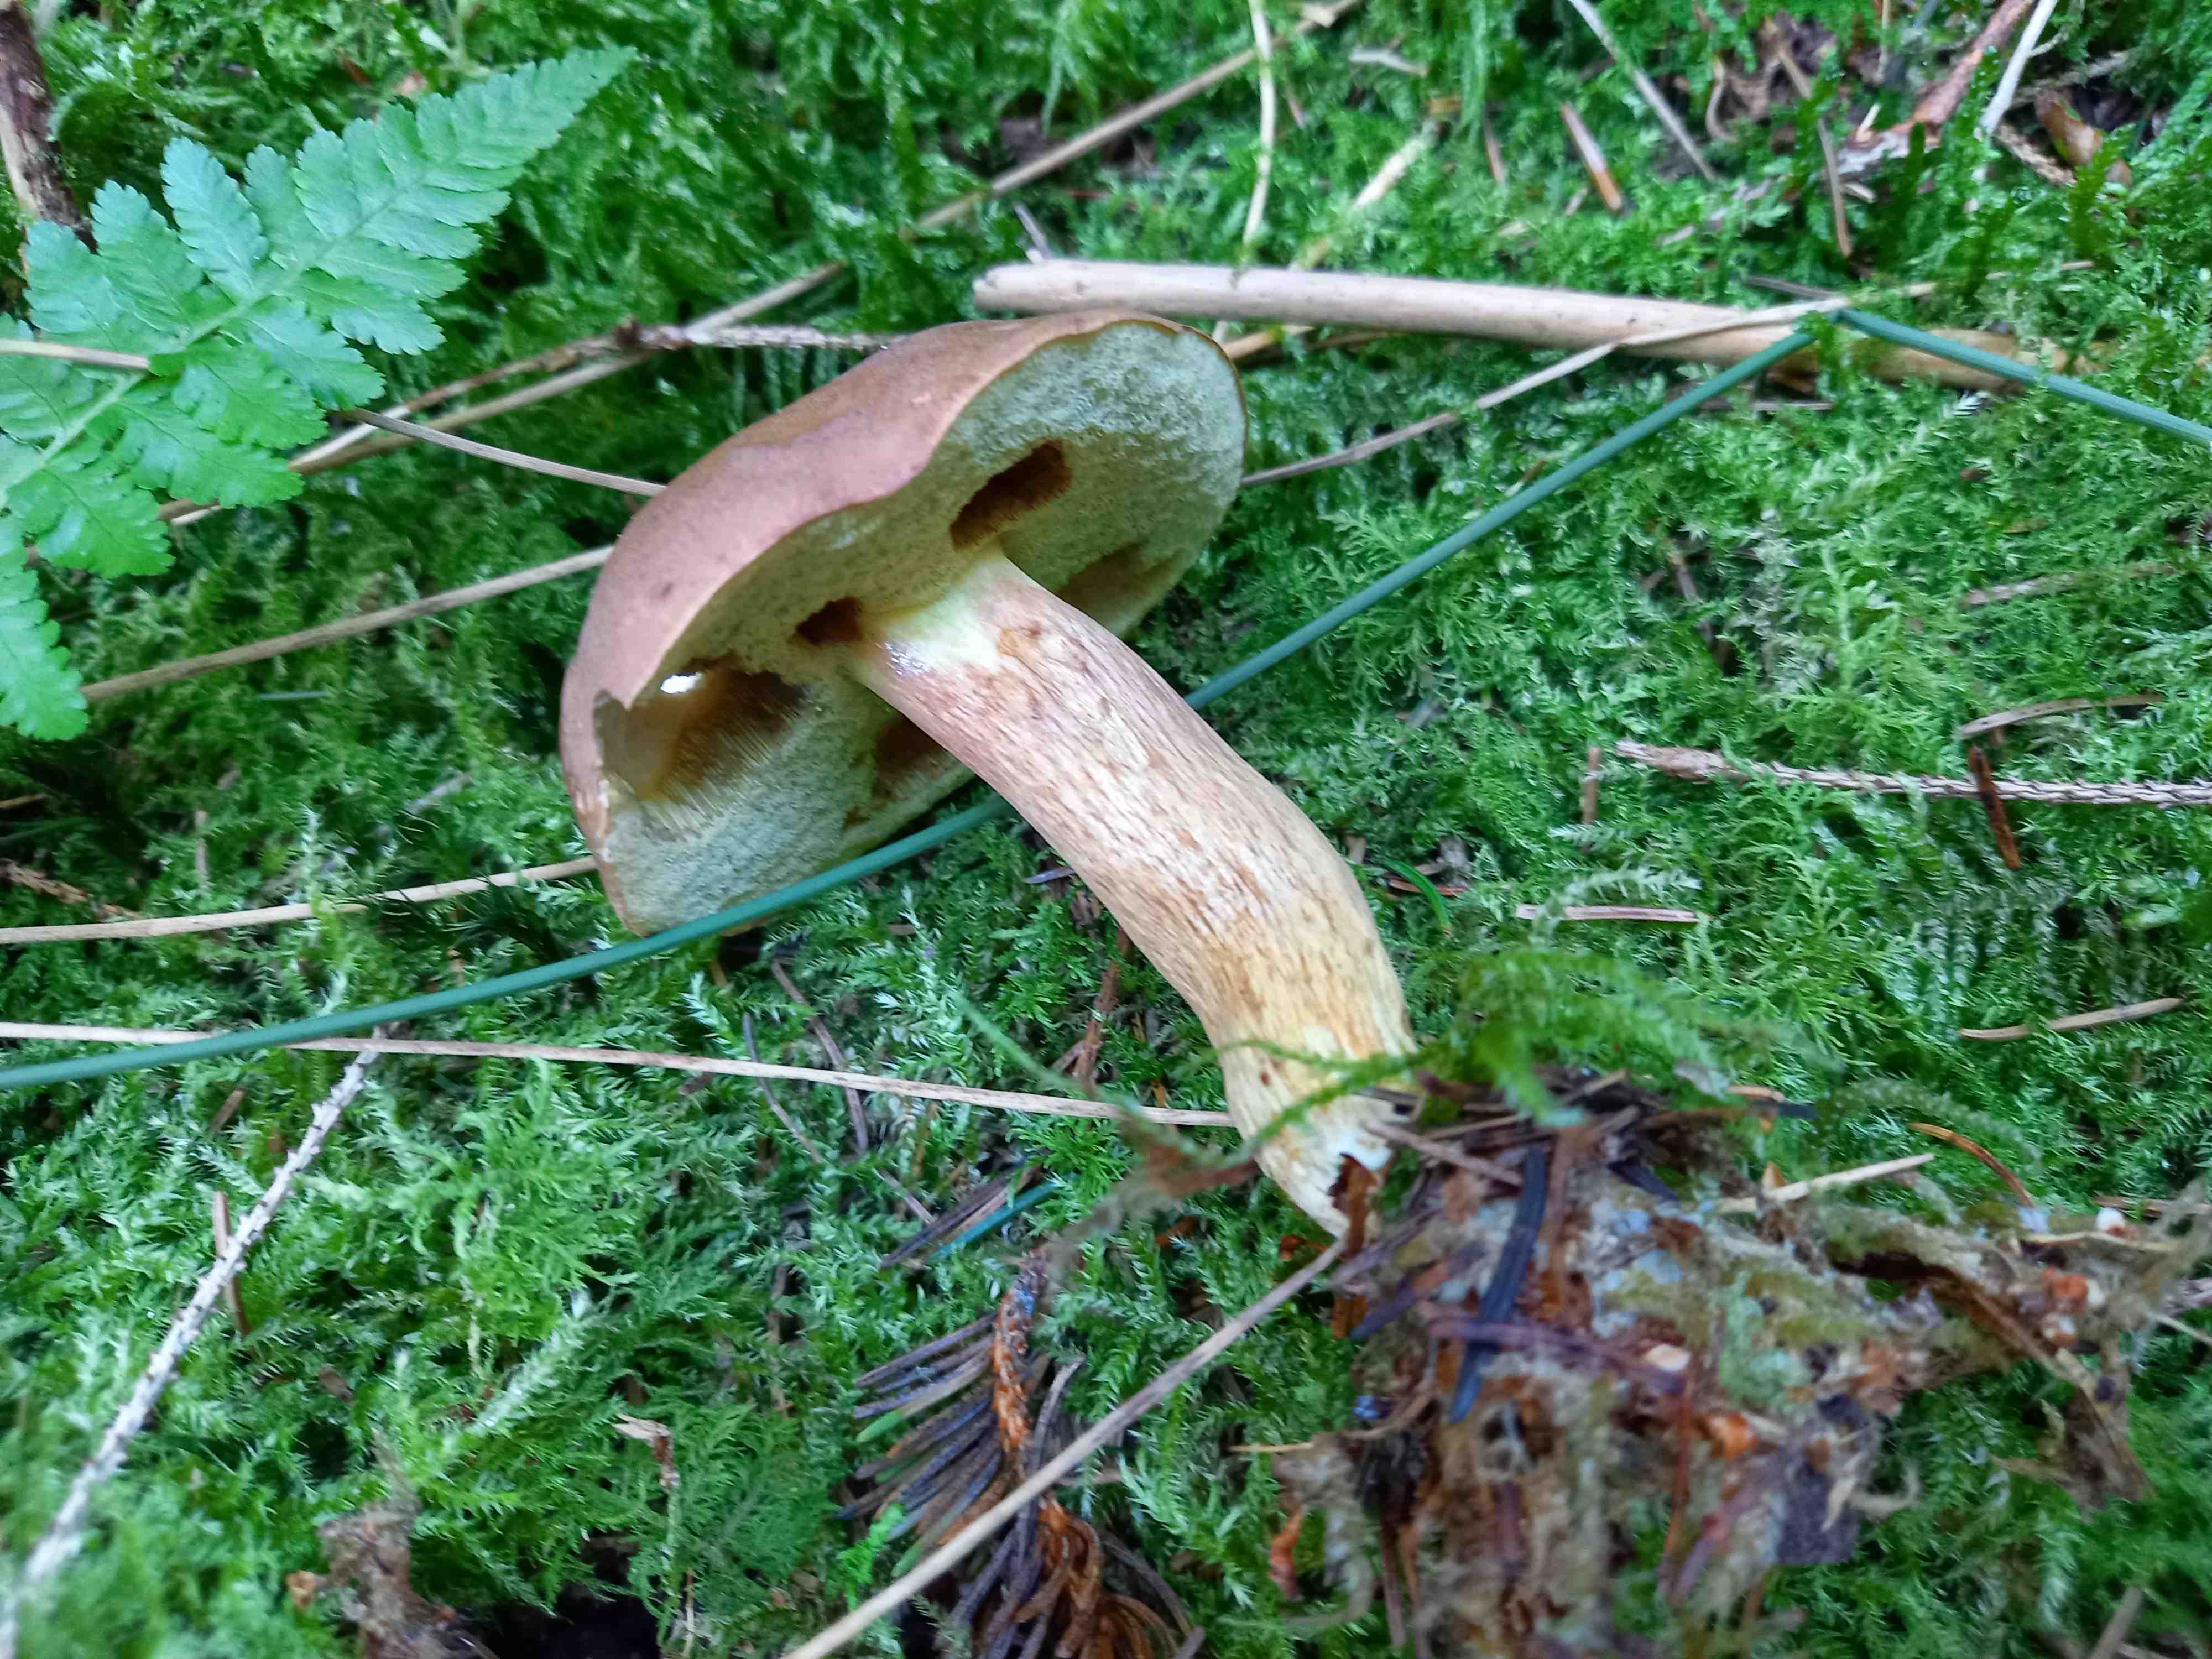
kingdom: Fungi
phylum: Basidiomycota
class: Agaricomycetes
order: Boletales
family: Boletaceae
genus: Imleria
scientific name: Imleria badia
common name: brunstokket rørhat
